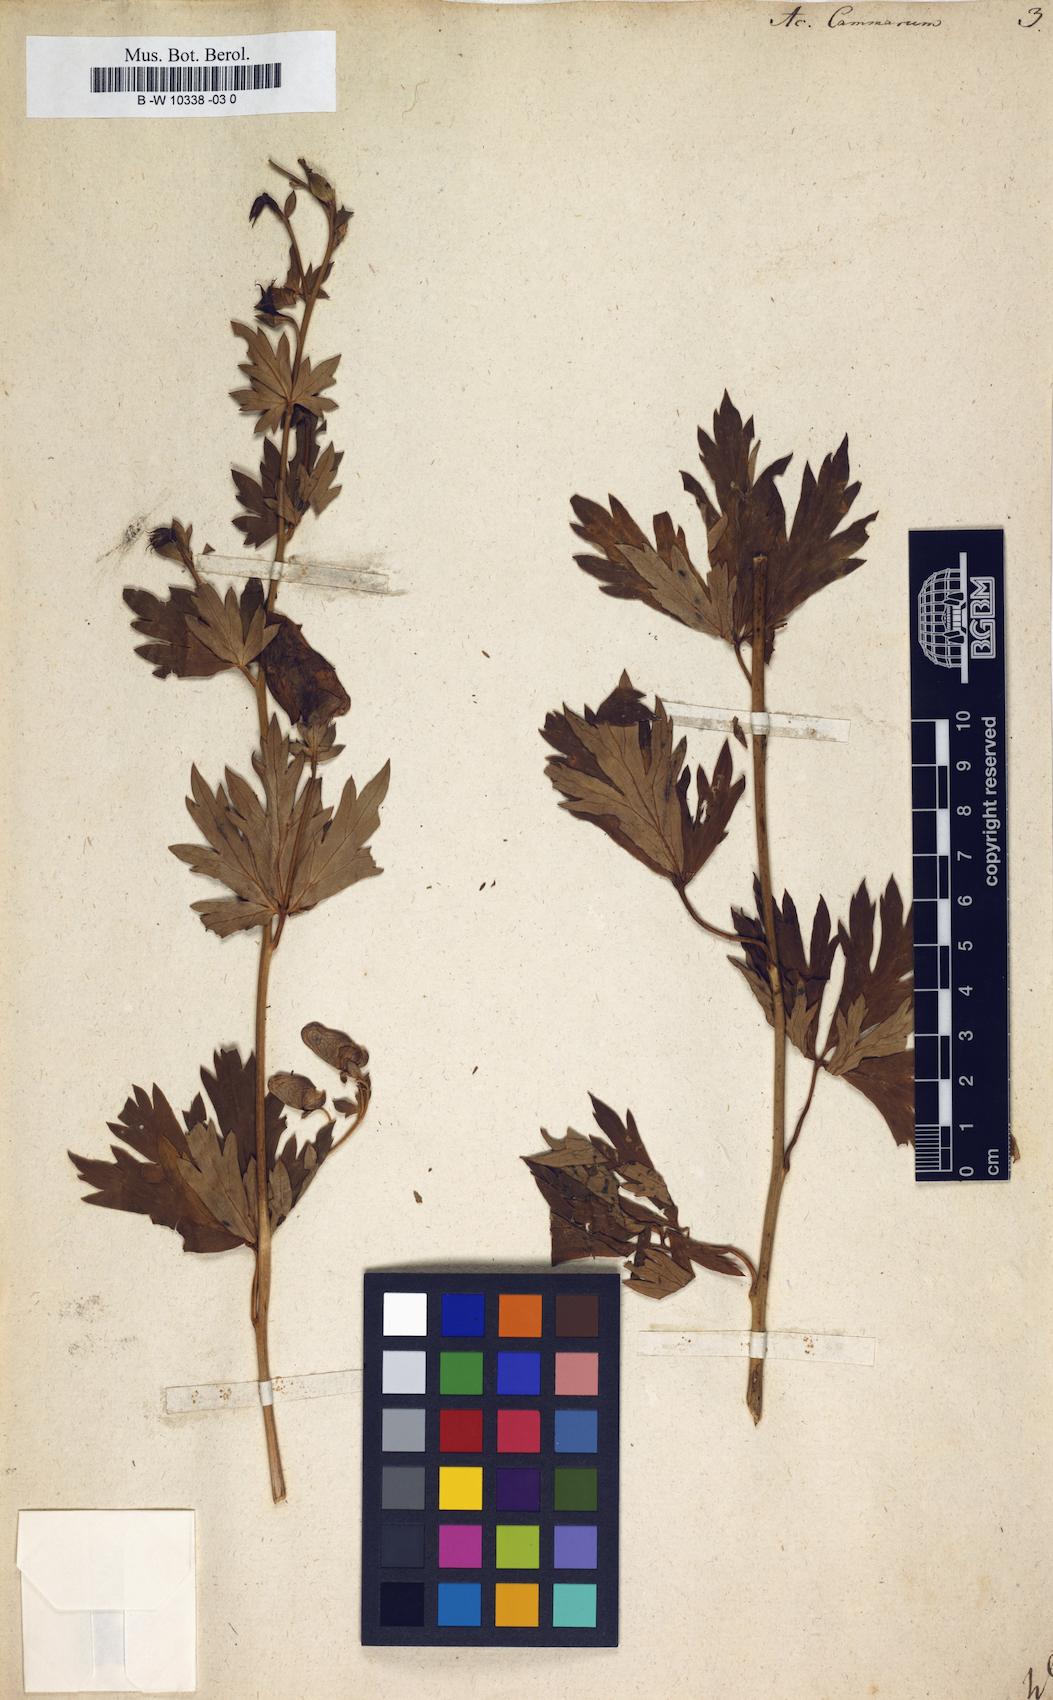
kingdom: Plantae
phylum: Tracheophyta
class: Magnoliopsida
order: Ranunculales
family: Ranunculaceae
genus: Aconitum
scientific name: Aconitum variegatum
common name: Manchurian monkshood
